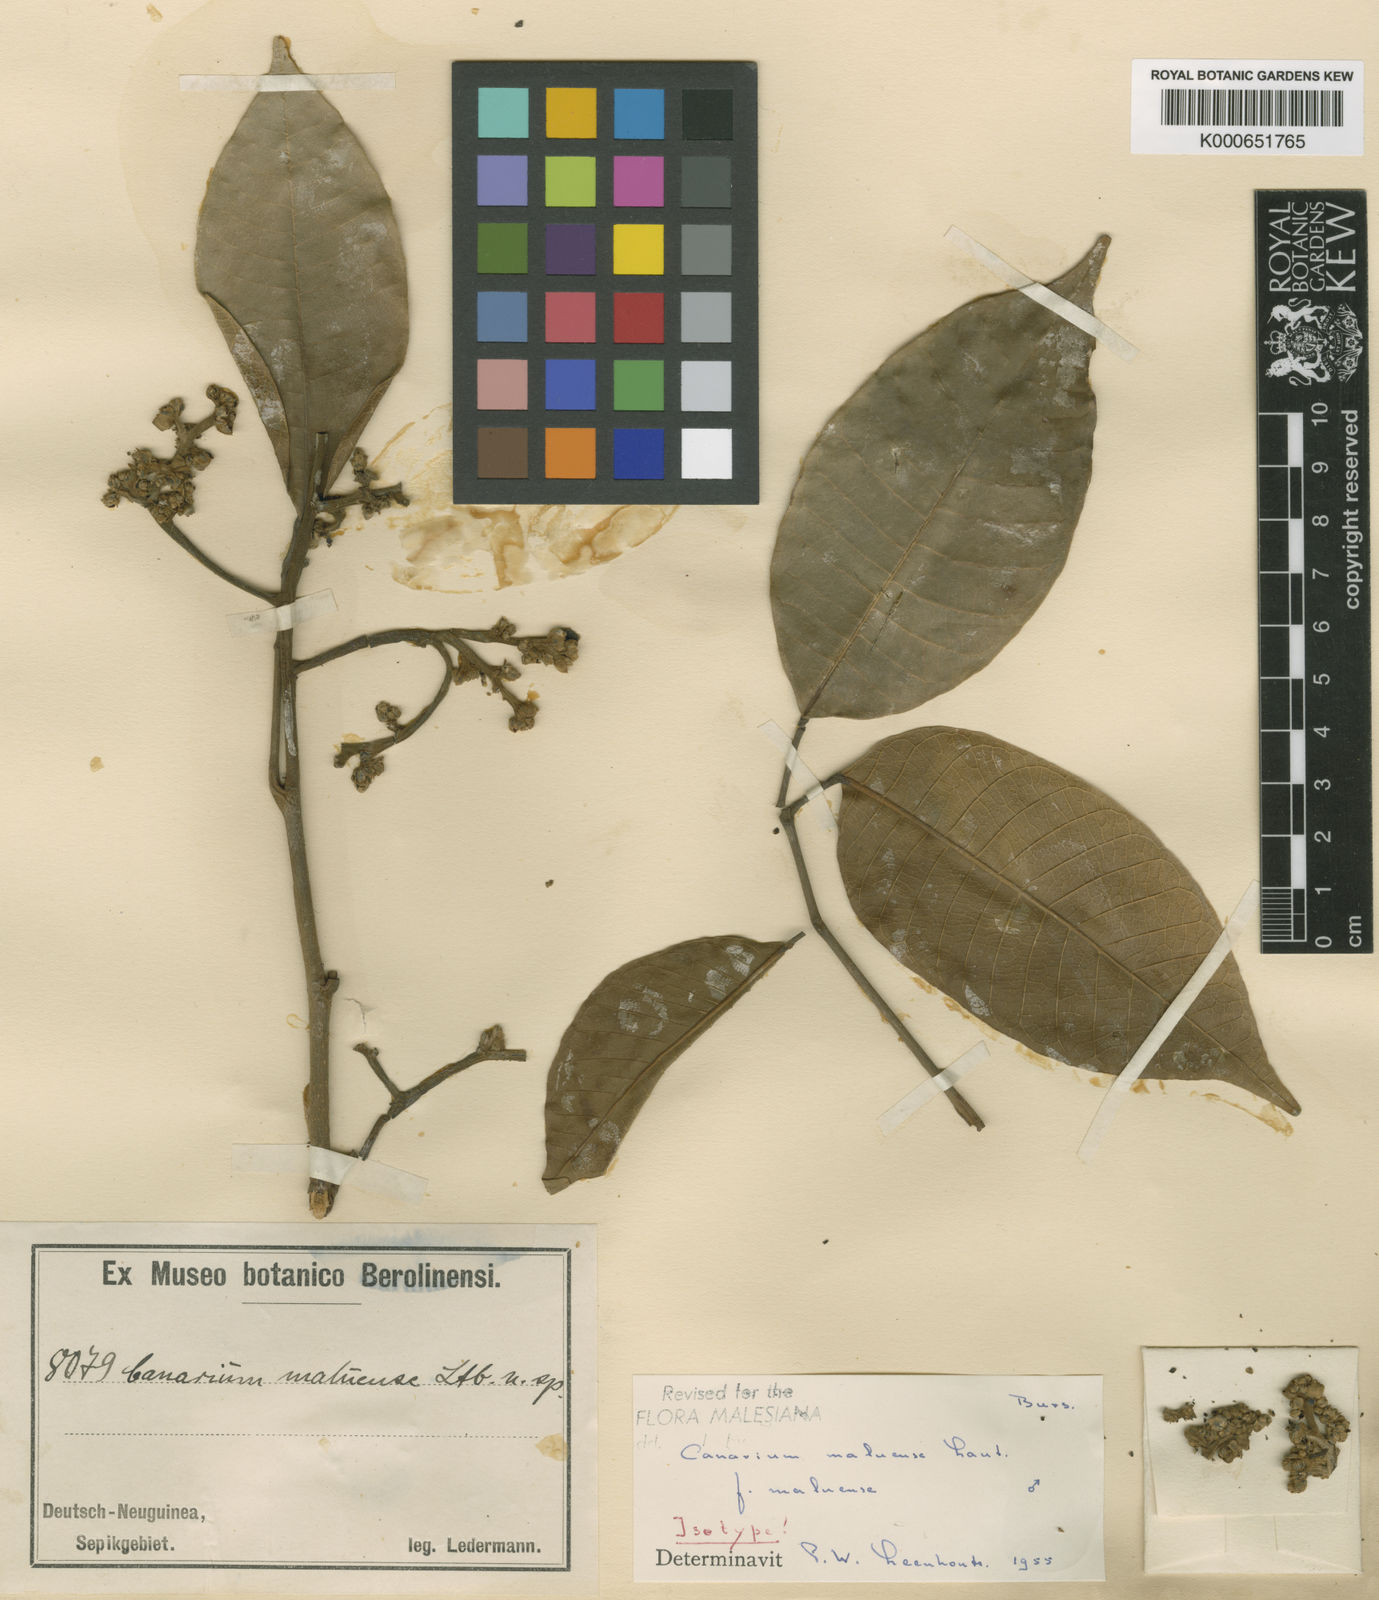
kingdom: Plantae
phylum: Tracheophyta
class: Magnoliopsida
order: Sapindales
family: Burseraceae
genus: Canarium
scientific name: Canarium maluense
